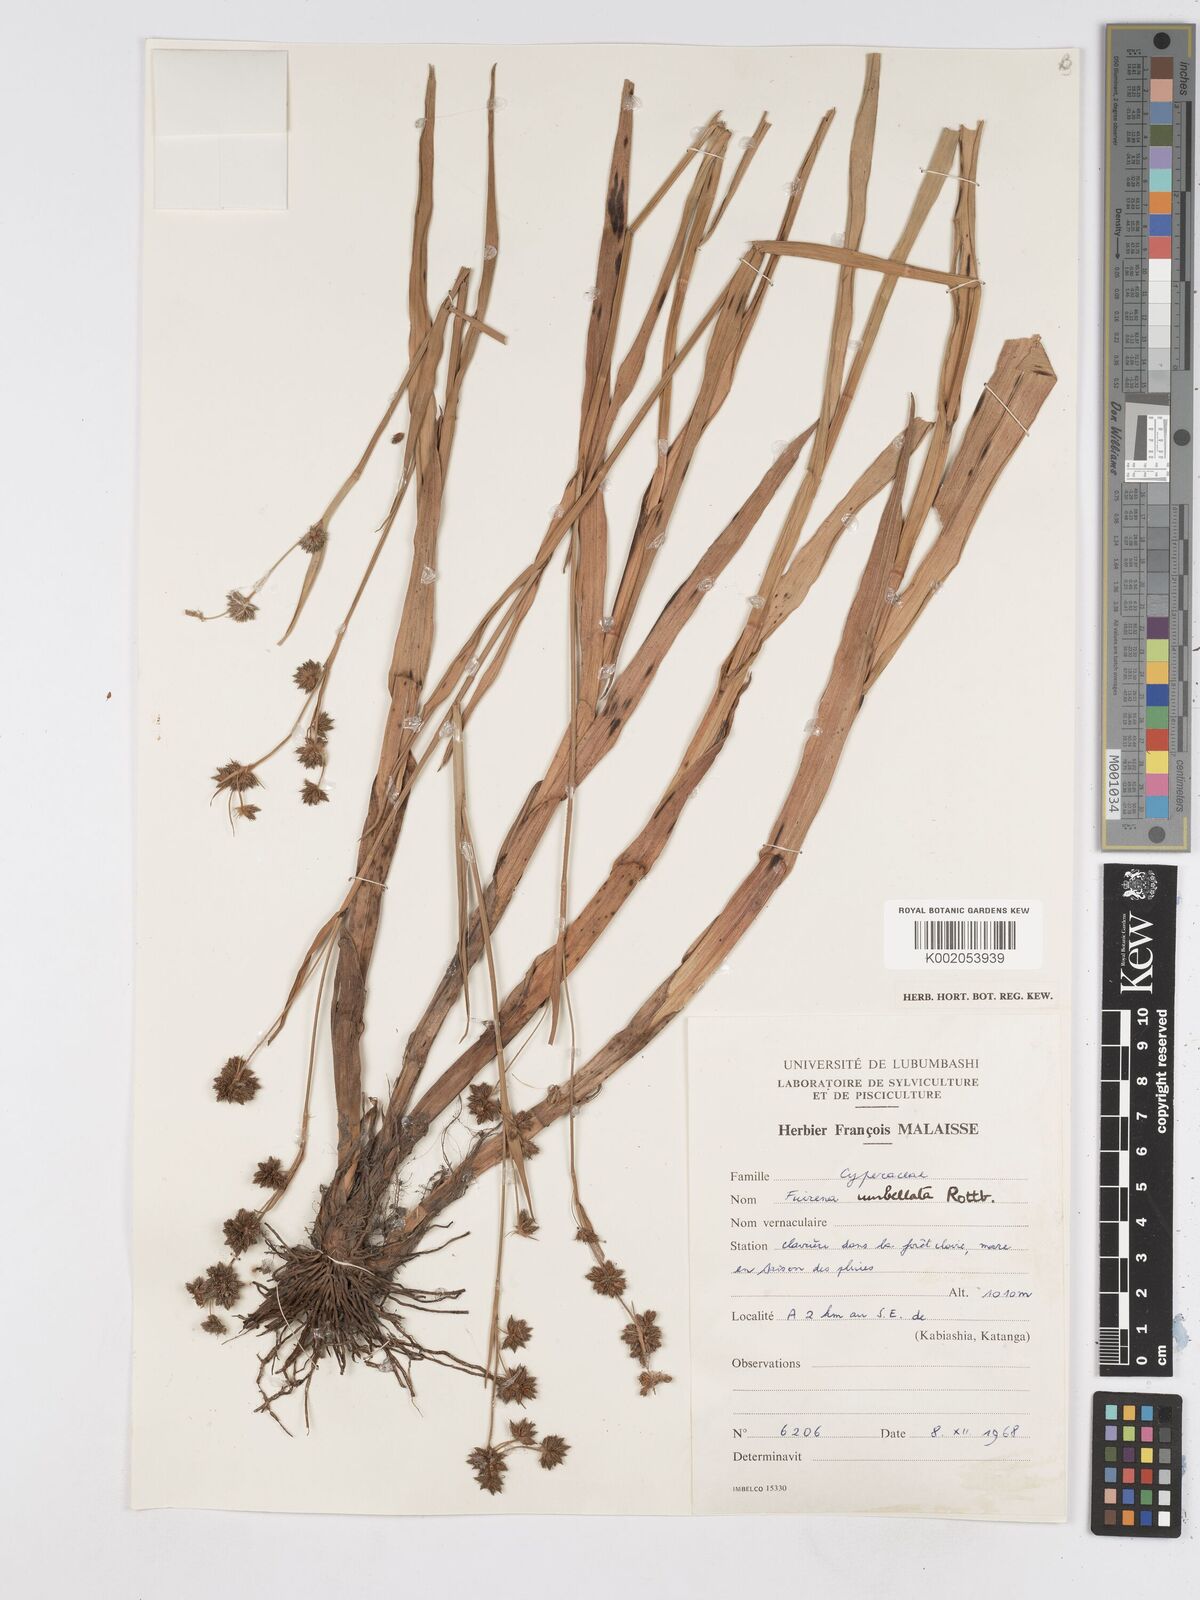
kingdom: Plantae
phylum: Tracheophyta
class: Liliopsida
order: Poales
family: Cyperaceae
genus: Fuirena
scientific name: Fuirena umbellata
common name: Yefen
